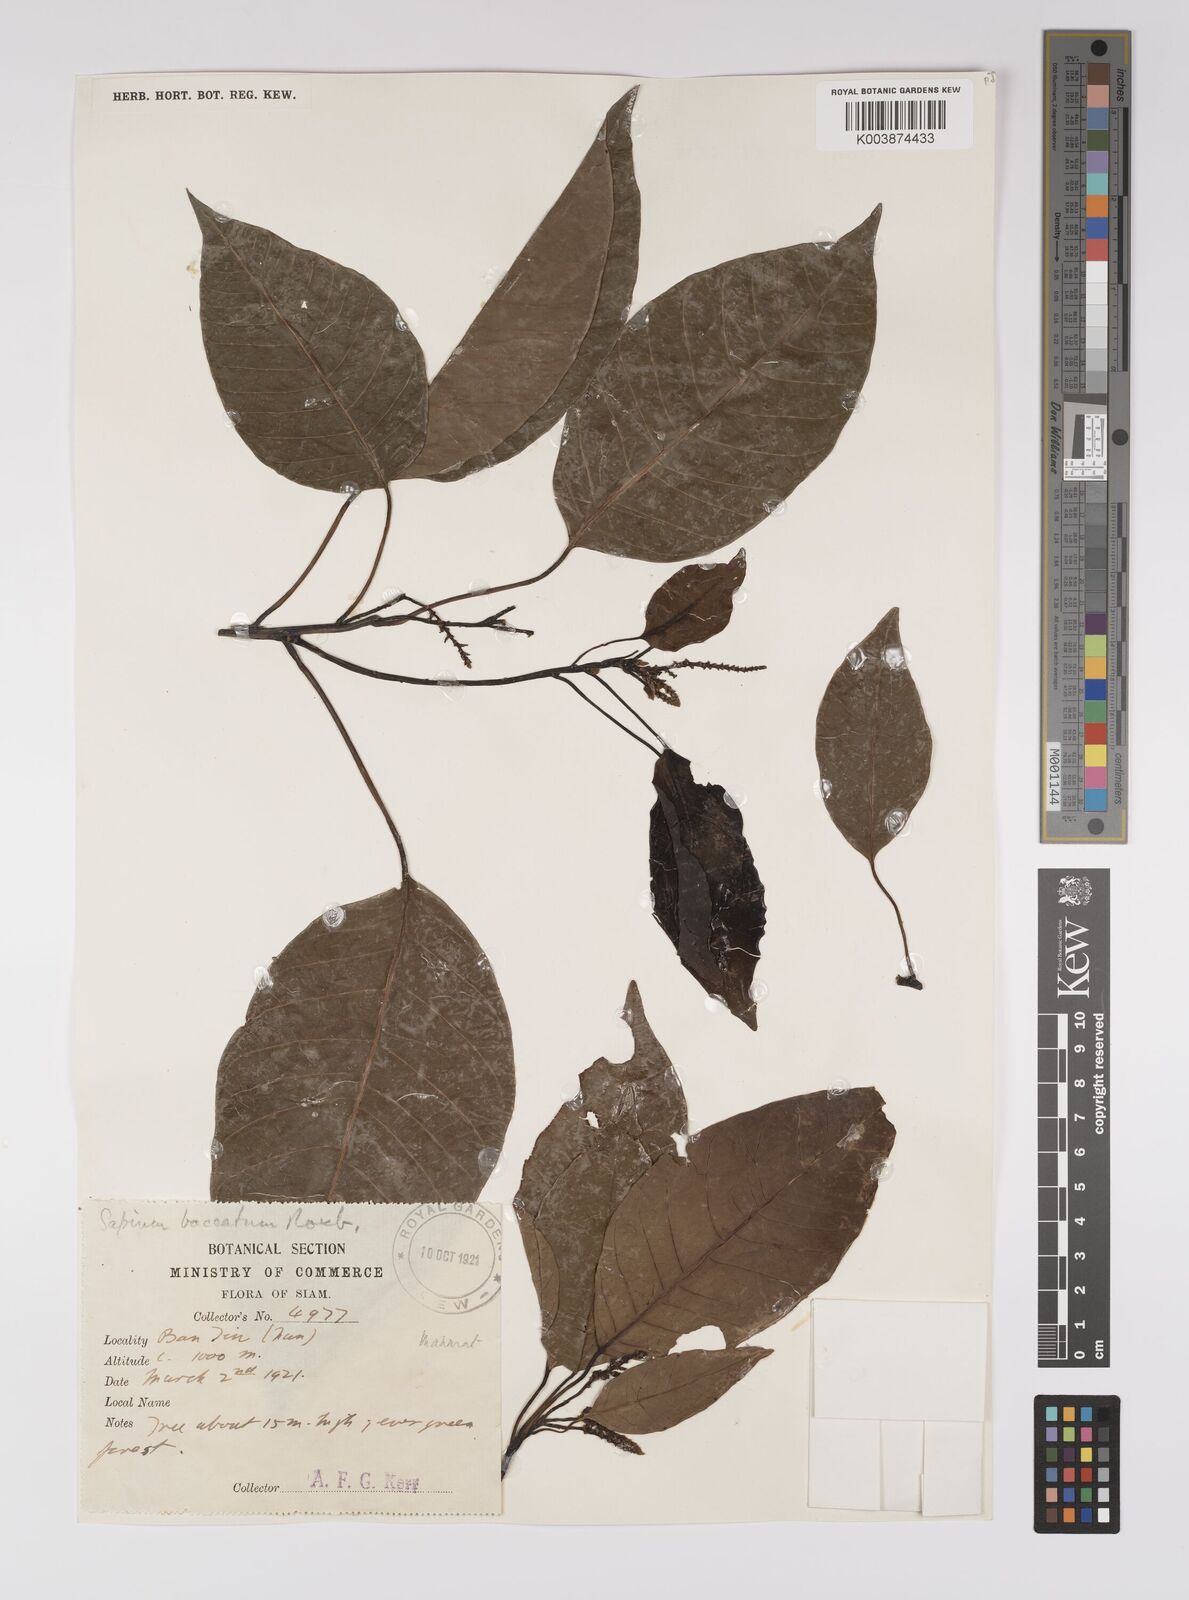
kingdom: Plantae
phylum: Tracheophyta
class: Magnoliopsida
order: Malpighiales
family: Euphorbiaceae
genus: Balakata
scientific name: Balakata baccata
